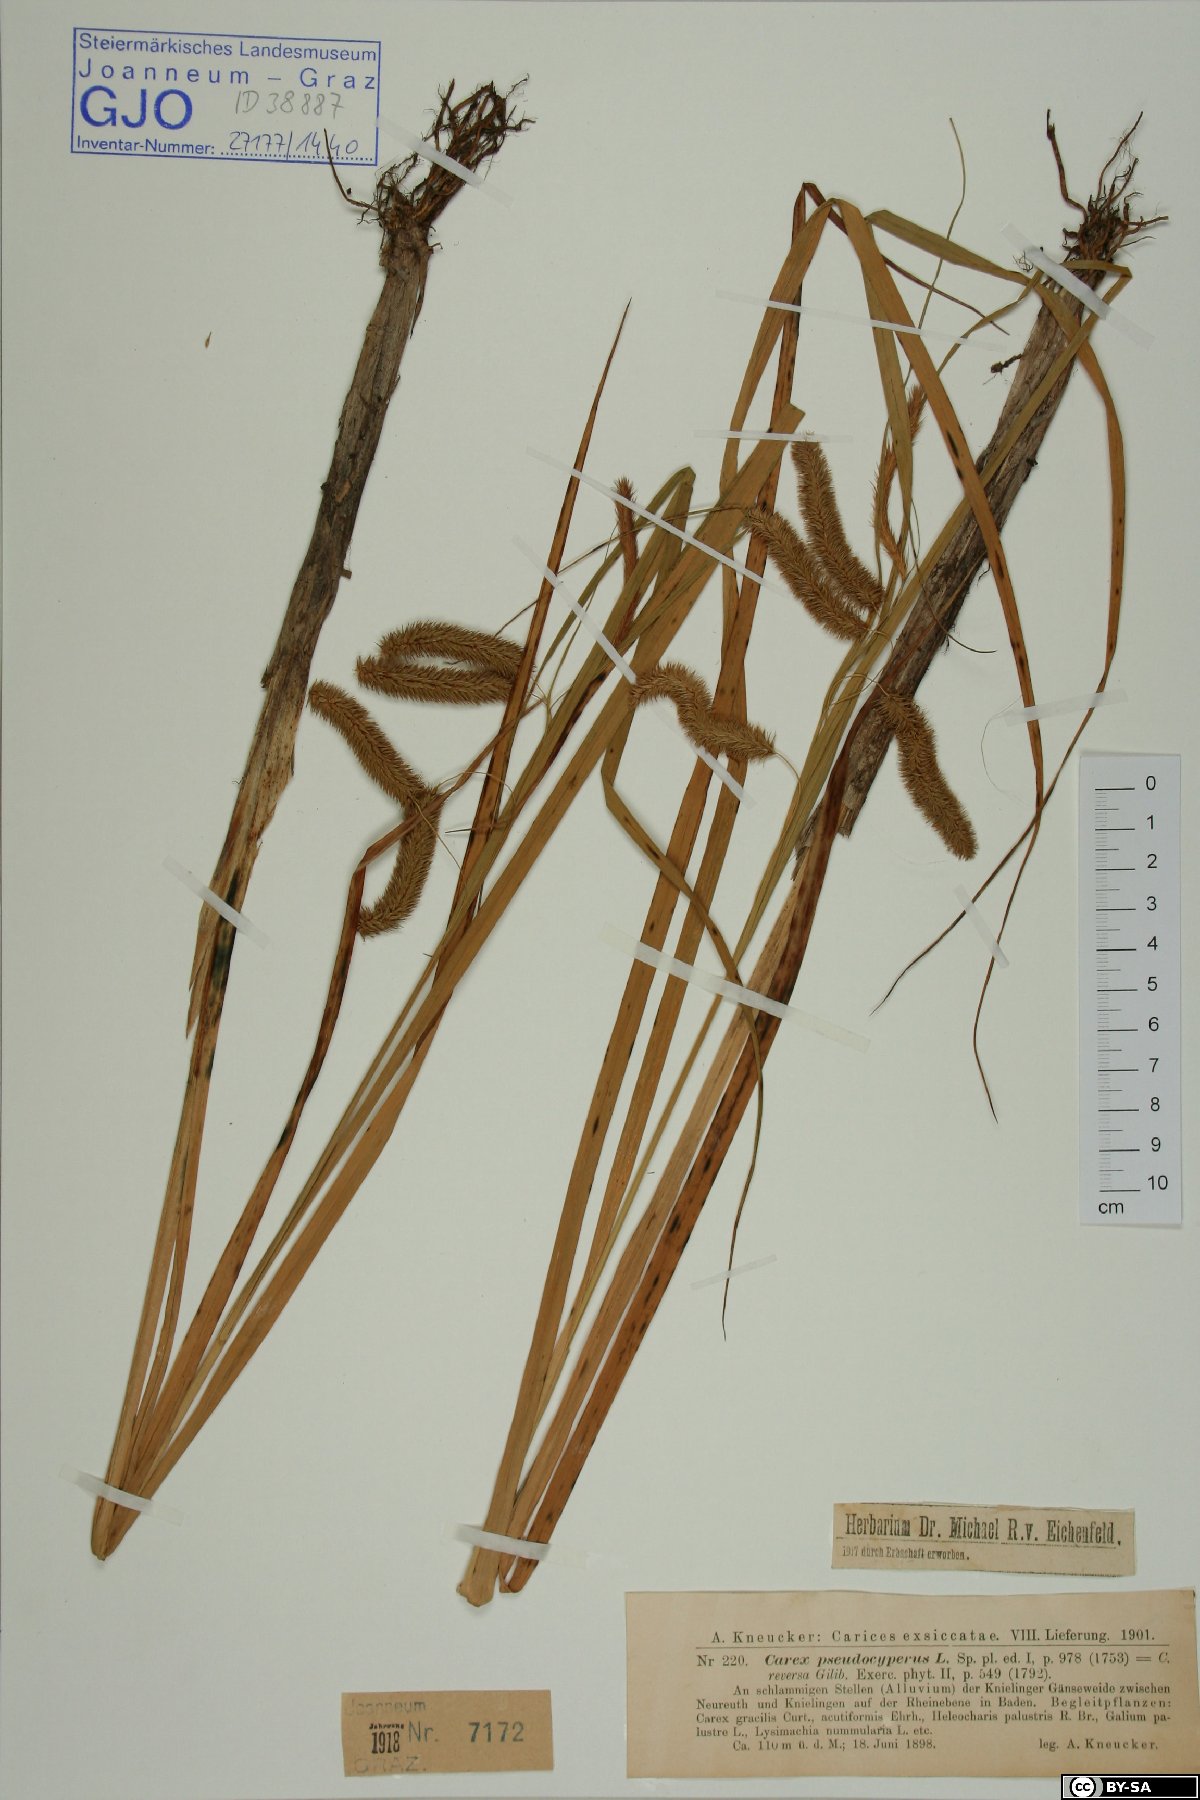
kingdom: Plantae
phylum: Tracheophyta
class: Liliopsida
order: Poales
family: Cyperaceae
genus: Carex
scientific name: Carex pseudocyperus
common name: Cyperus sedge
